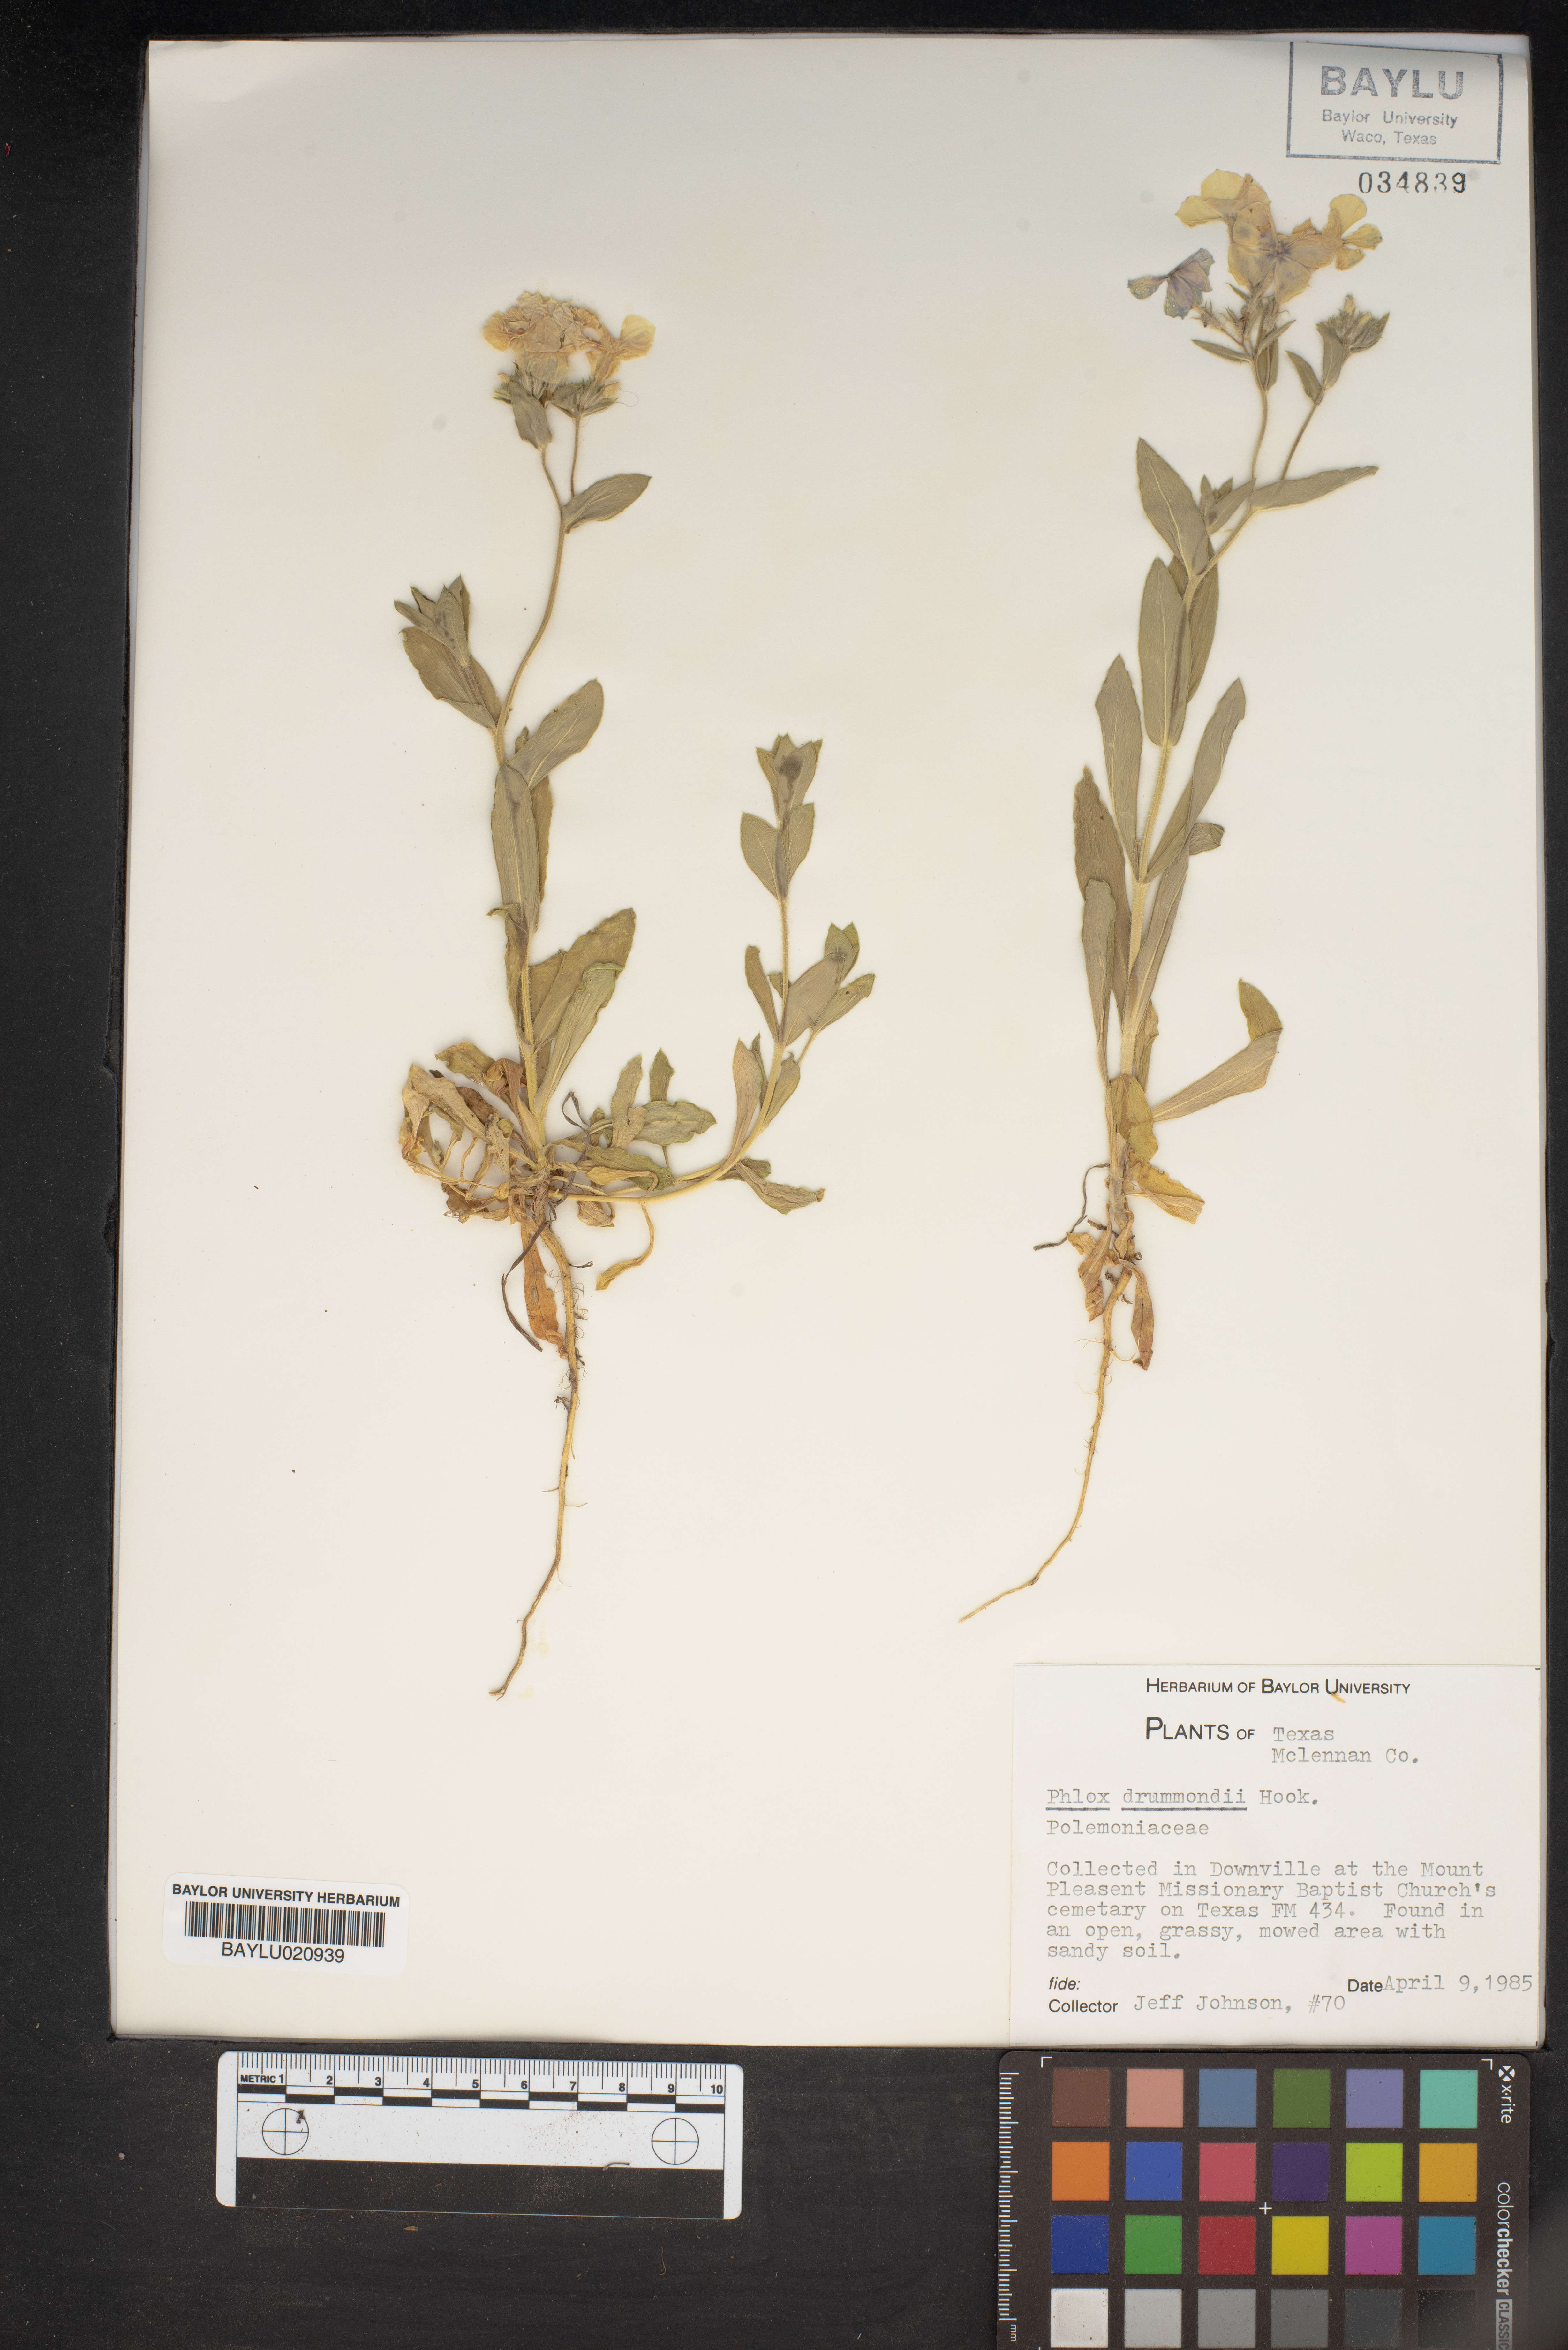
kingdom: Plantae
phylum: Tracheophyta
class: Magnoliopsida
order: Ericales
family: Polemoniaceae
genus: Phlox
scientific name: Phlox drummondii
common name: Drummond's phlox
